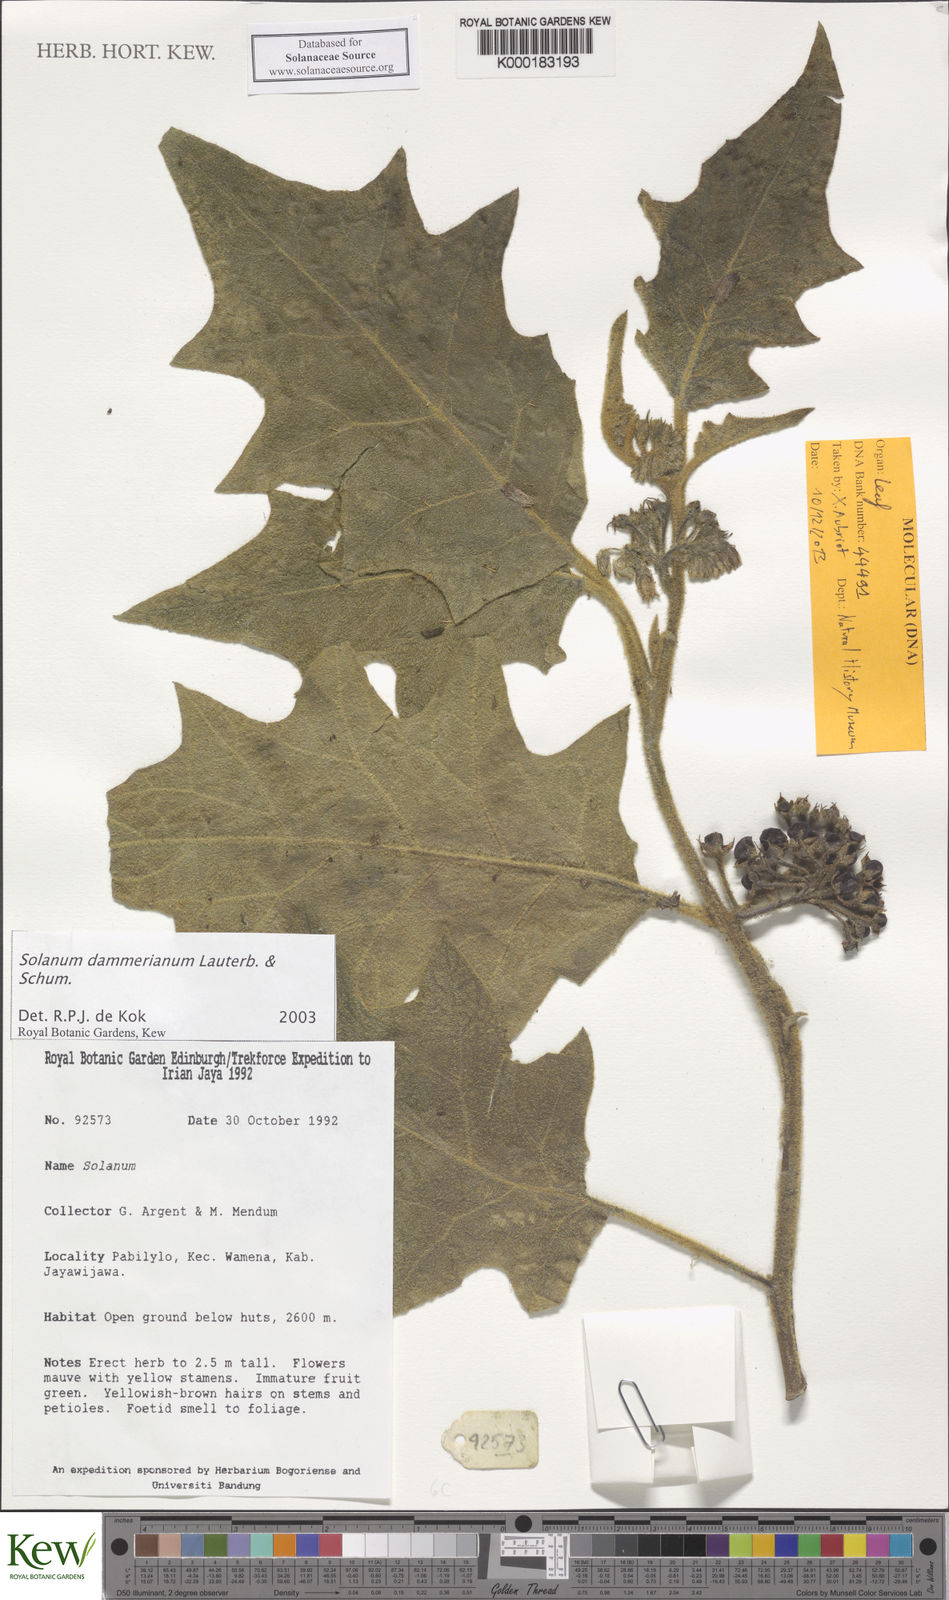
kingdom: Plantae
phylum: Tracheophyta
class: Magnoliopsida
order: Solanales
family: Solanaceae
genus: Solanum
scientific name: Solanum dammerianum
